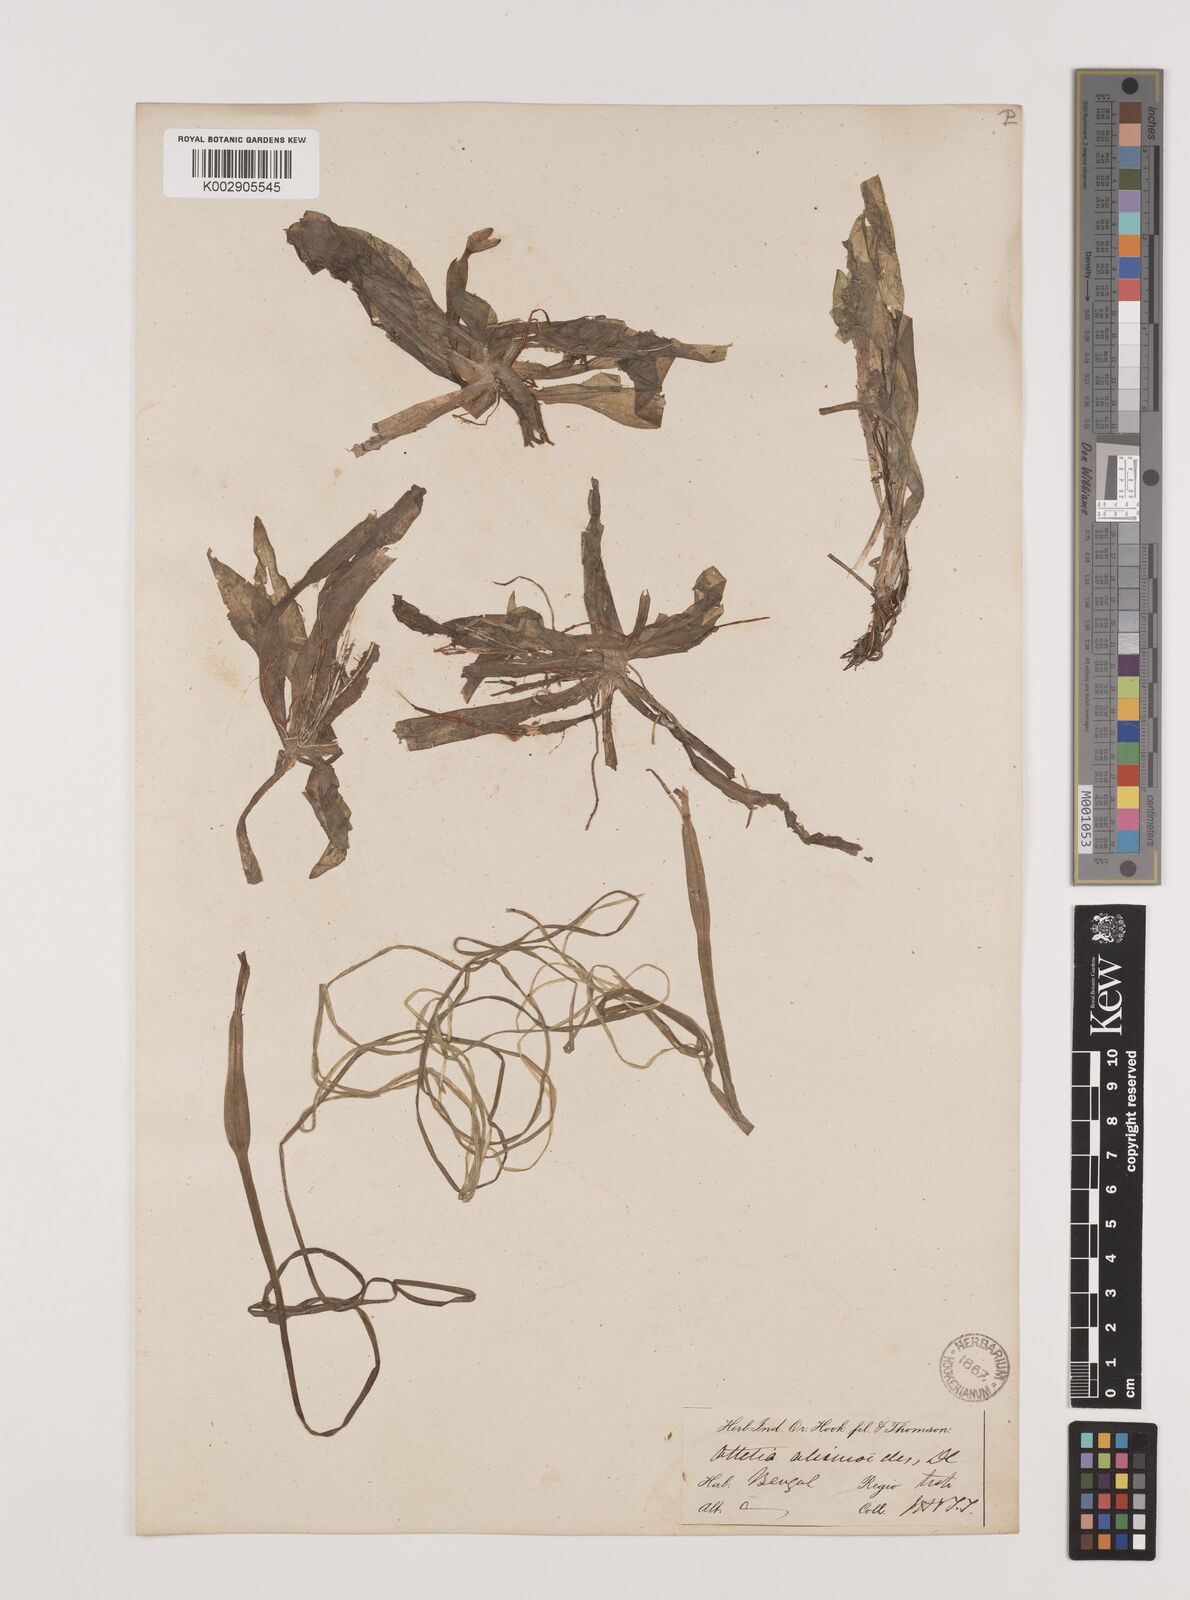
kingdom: Plantae
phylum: Tracheophyta
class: Liliopsida
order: Alismatales
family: Hydrocharitaceae
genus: Ottelia
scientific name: Ottelia alismoides
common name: Duck-lettuce
